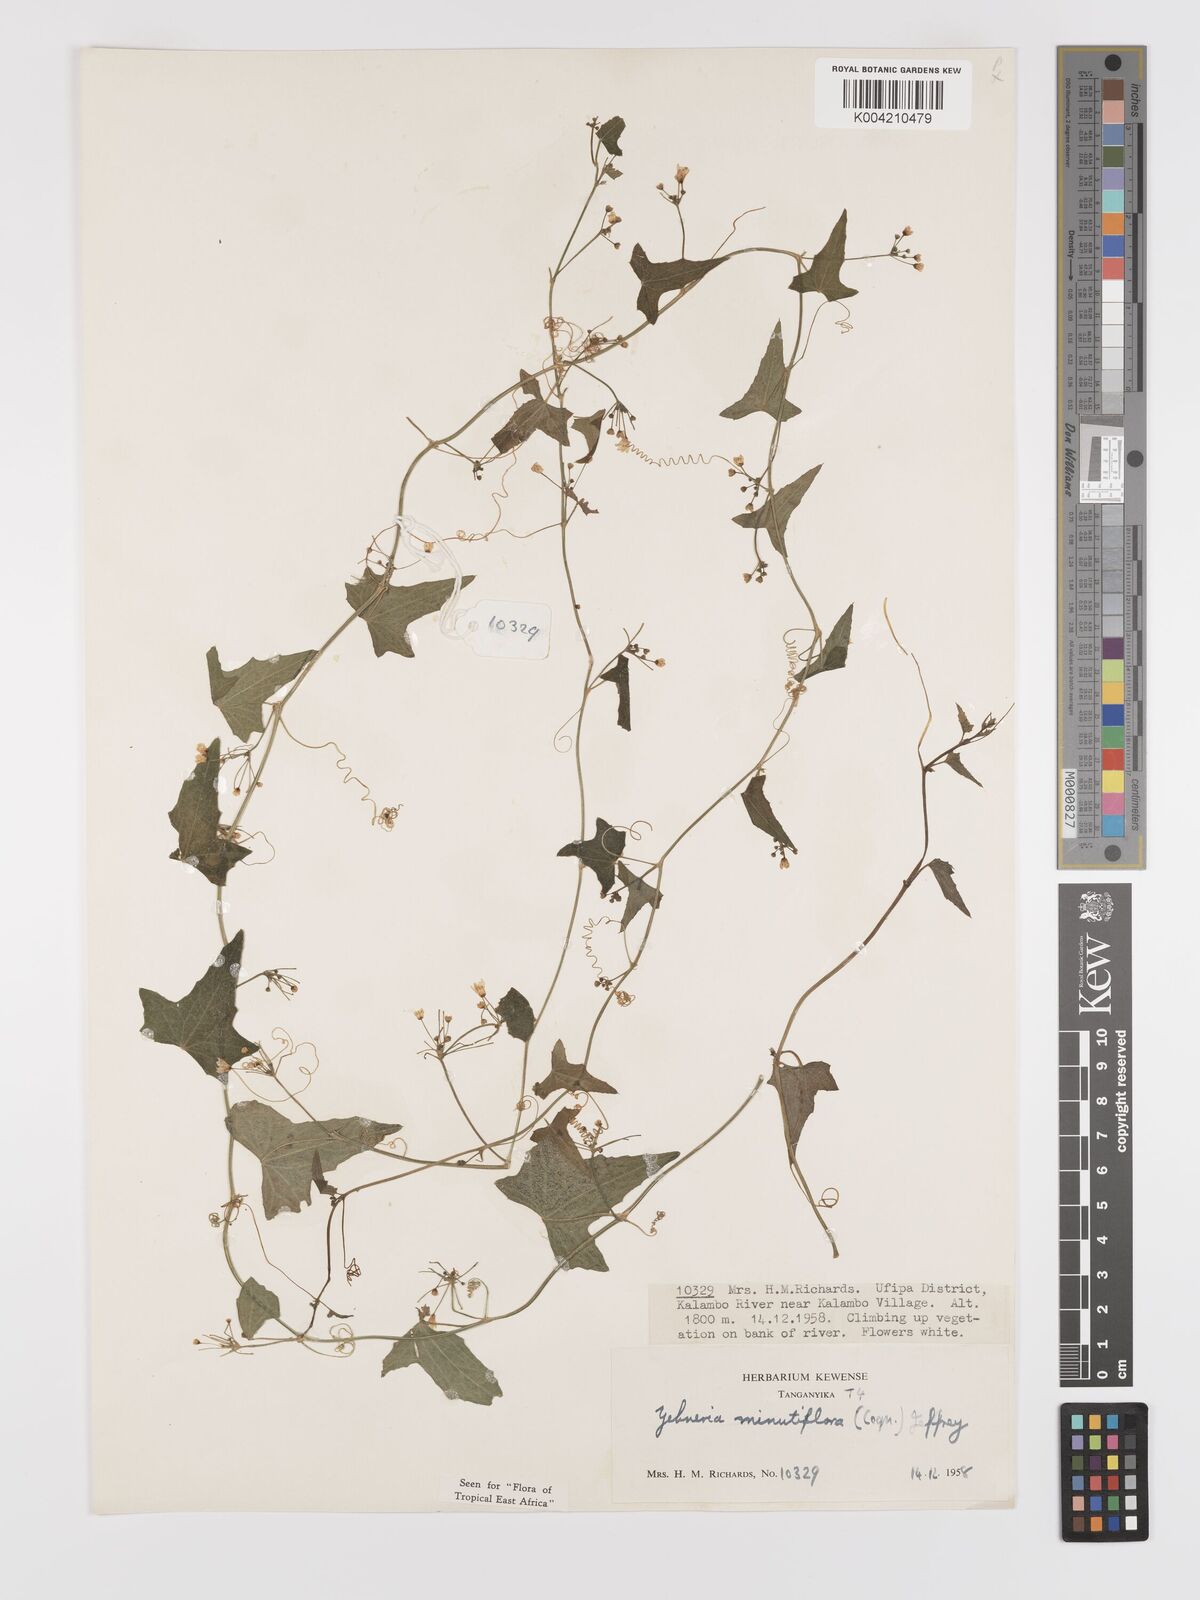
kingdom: Plantae
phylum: Tracheophyta
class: Magnoliopsida
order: Cucurbitales
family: Cucurbitaceae
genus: Zehneria
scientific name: Zehneria minutiflora
